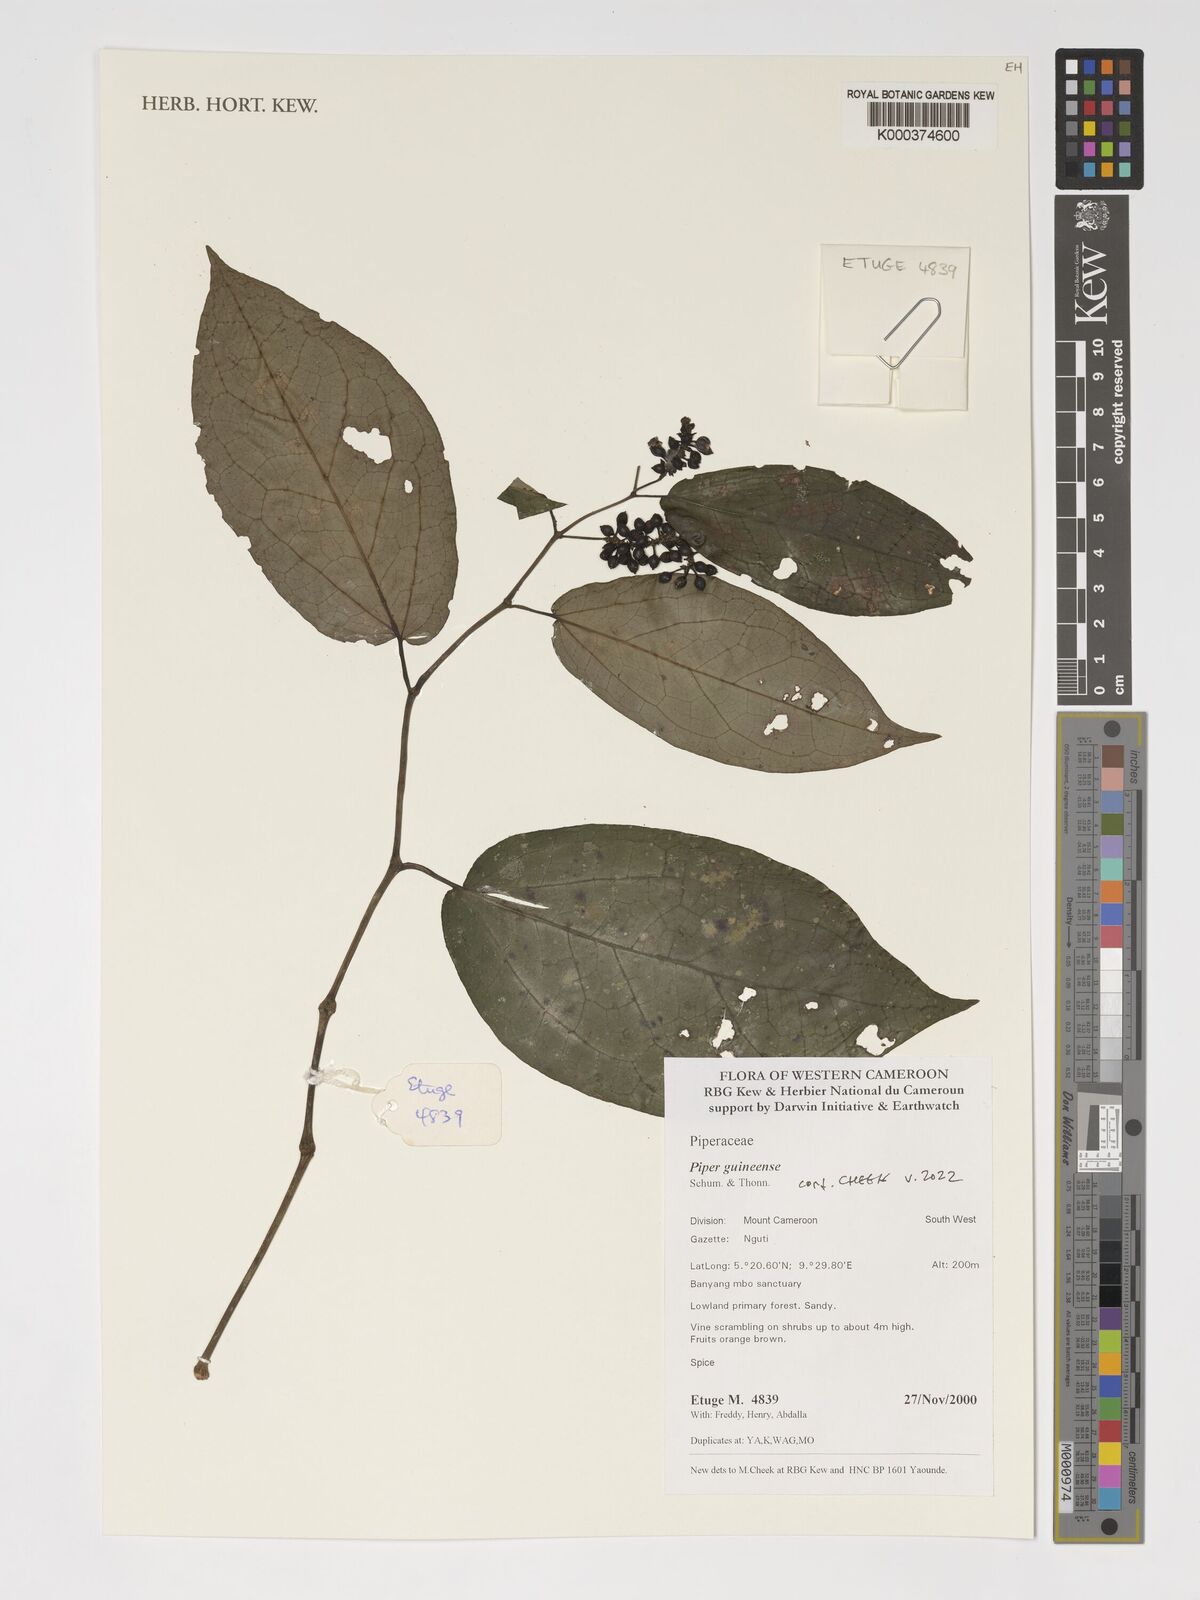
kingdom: Plantae
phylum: Tracheophyta
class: Magnoliopsida
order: Piperales
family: Piperaceae
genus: Piper
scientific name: Piper guineense
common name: Benin pepper
